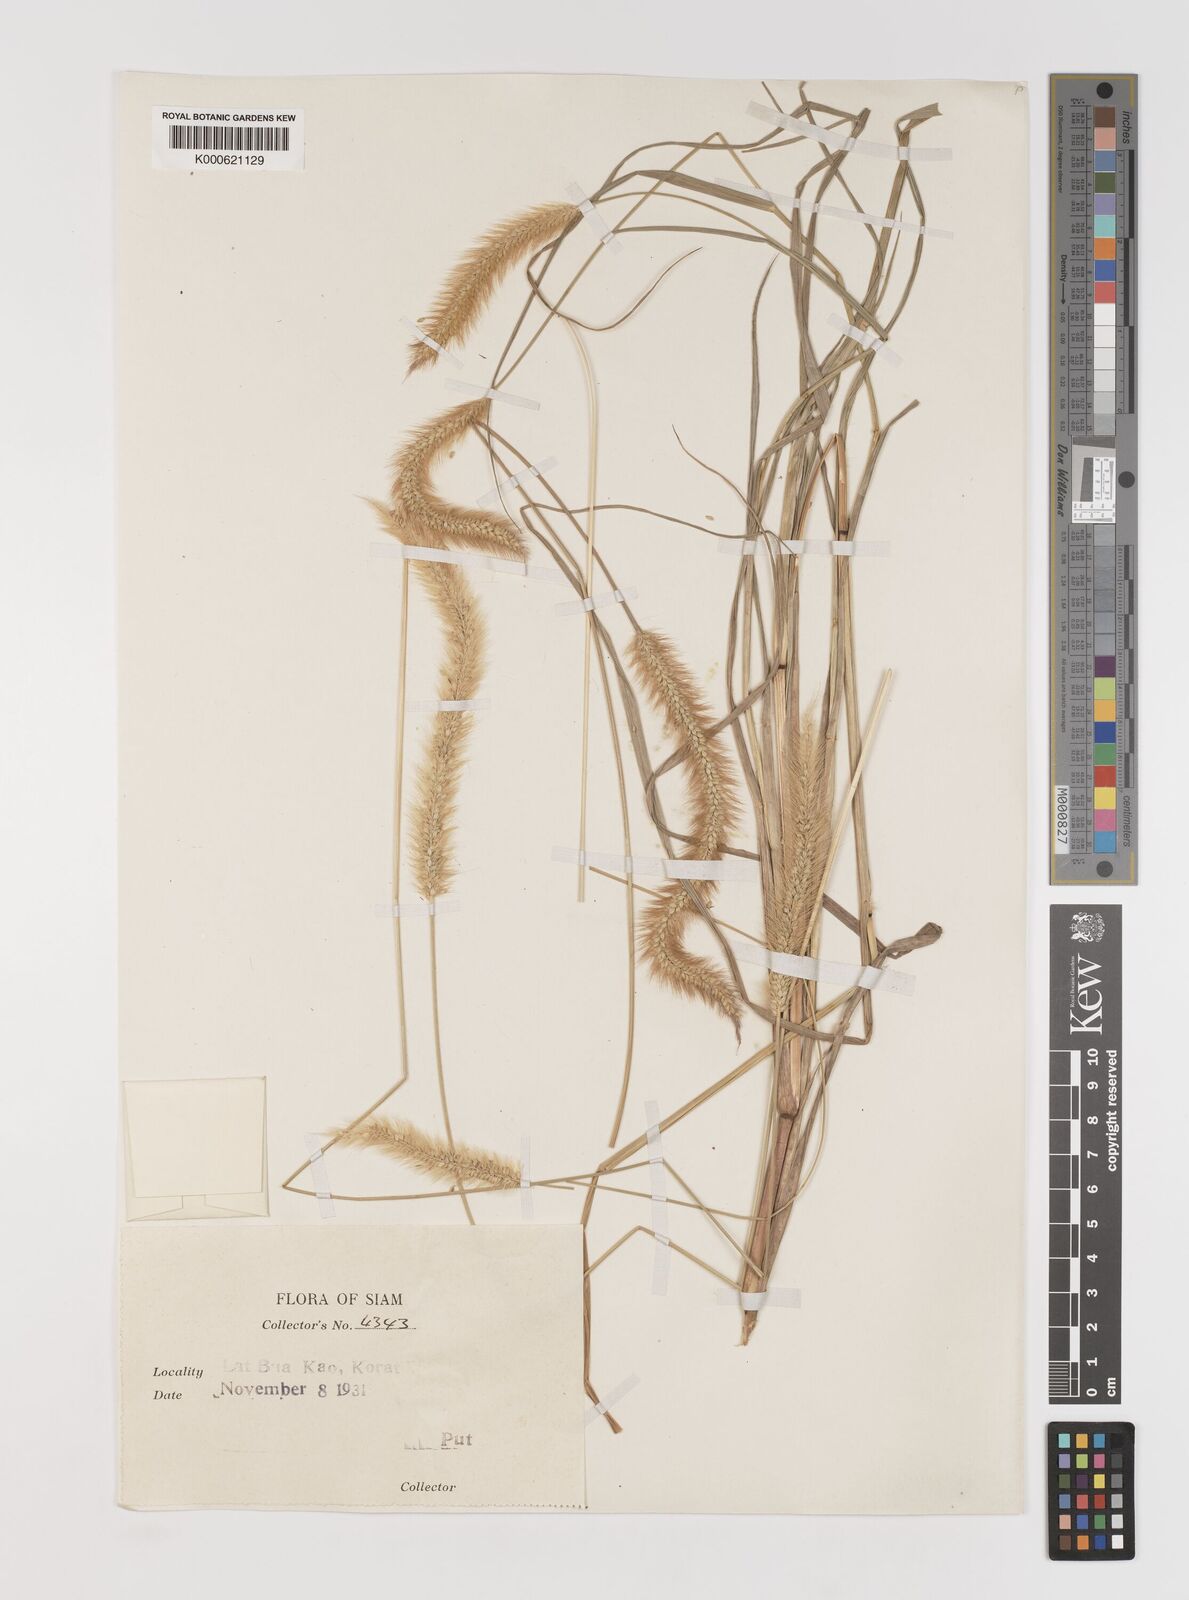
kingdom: Plantae
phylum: Tracheophyta
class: Liliopsida
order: Poales
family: Poaceae
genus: Setaria
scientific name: Setaria italica
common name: Foxtail bristle-grass
